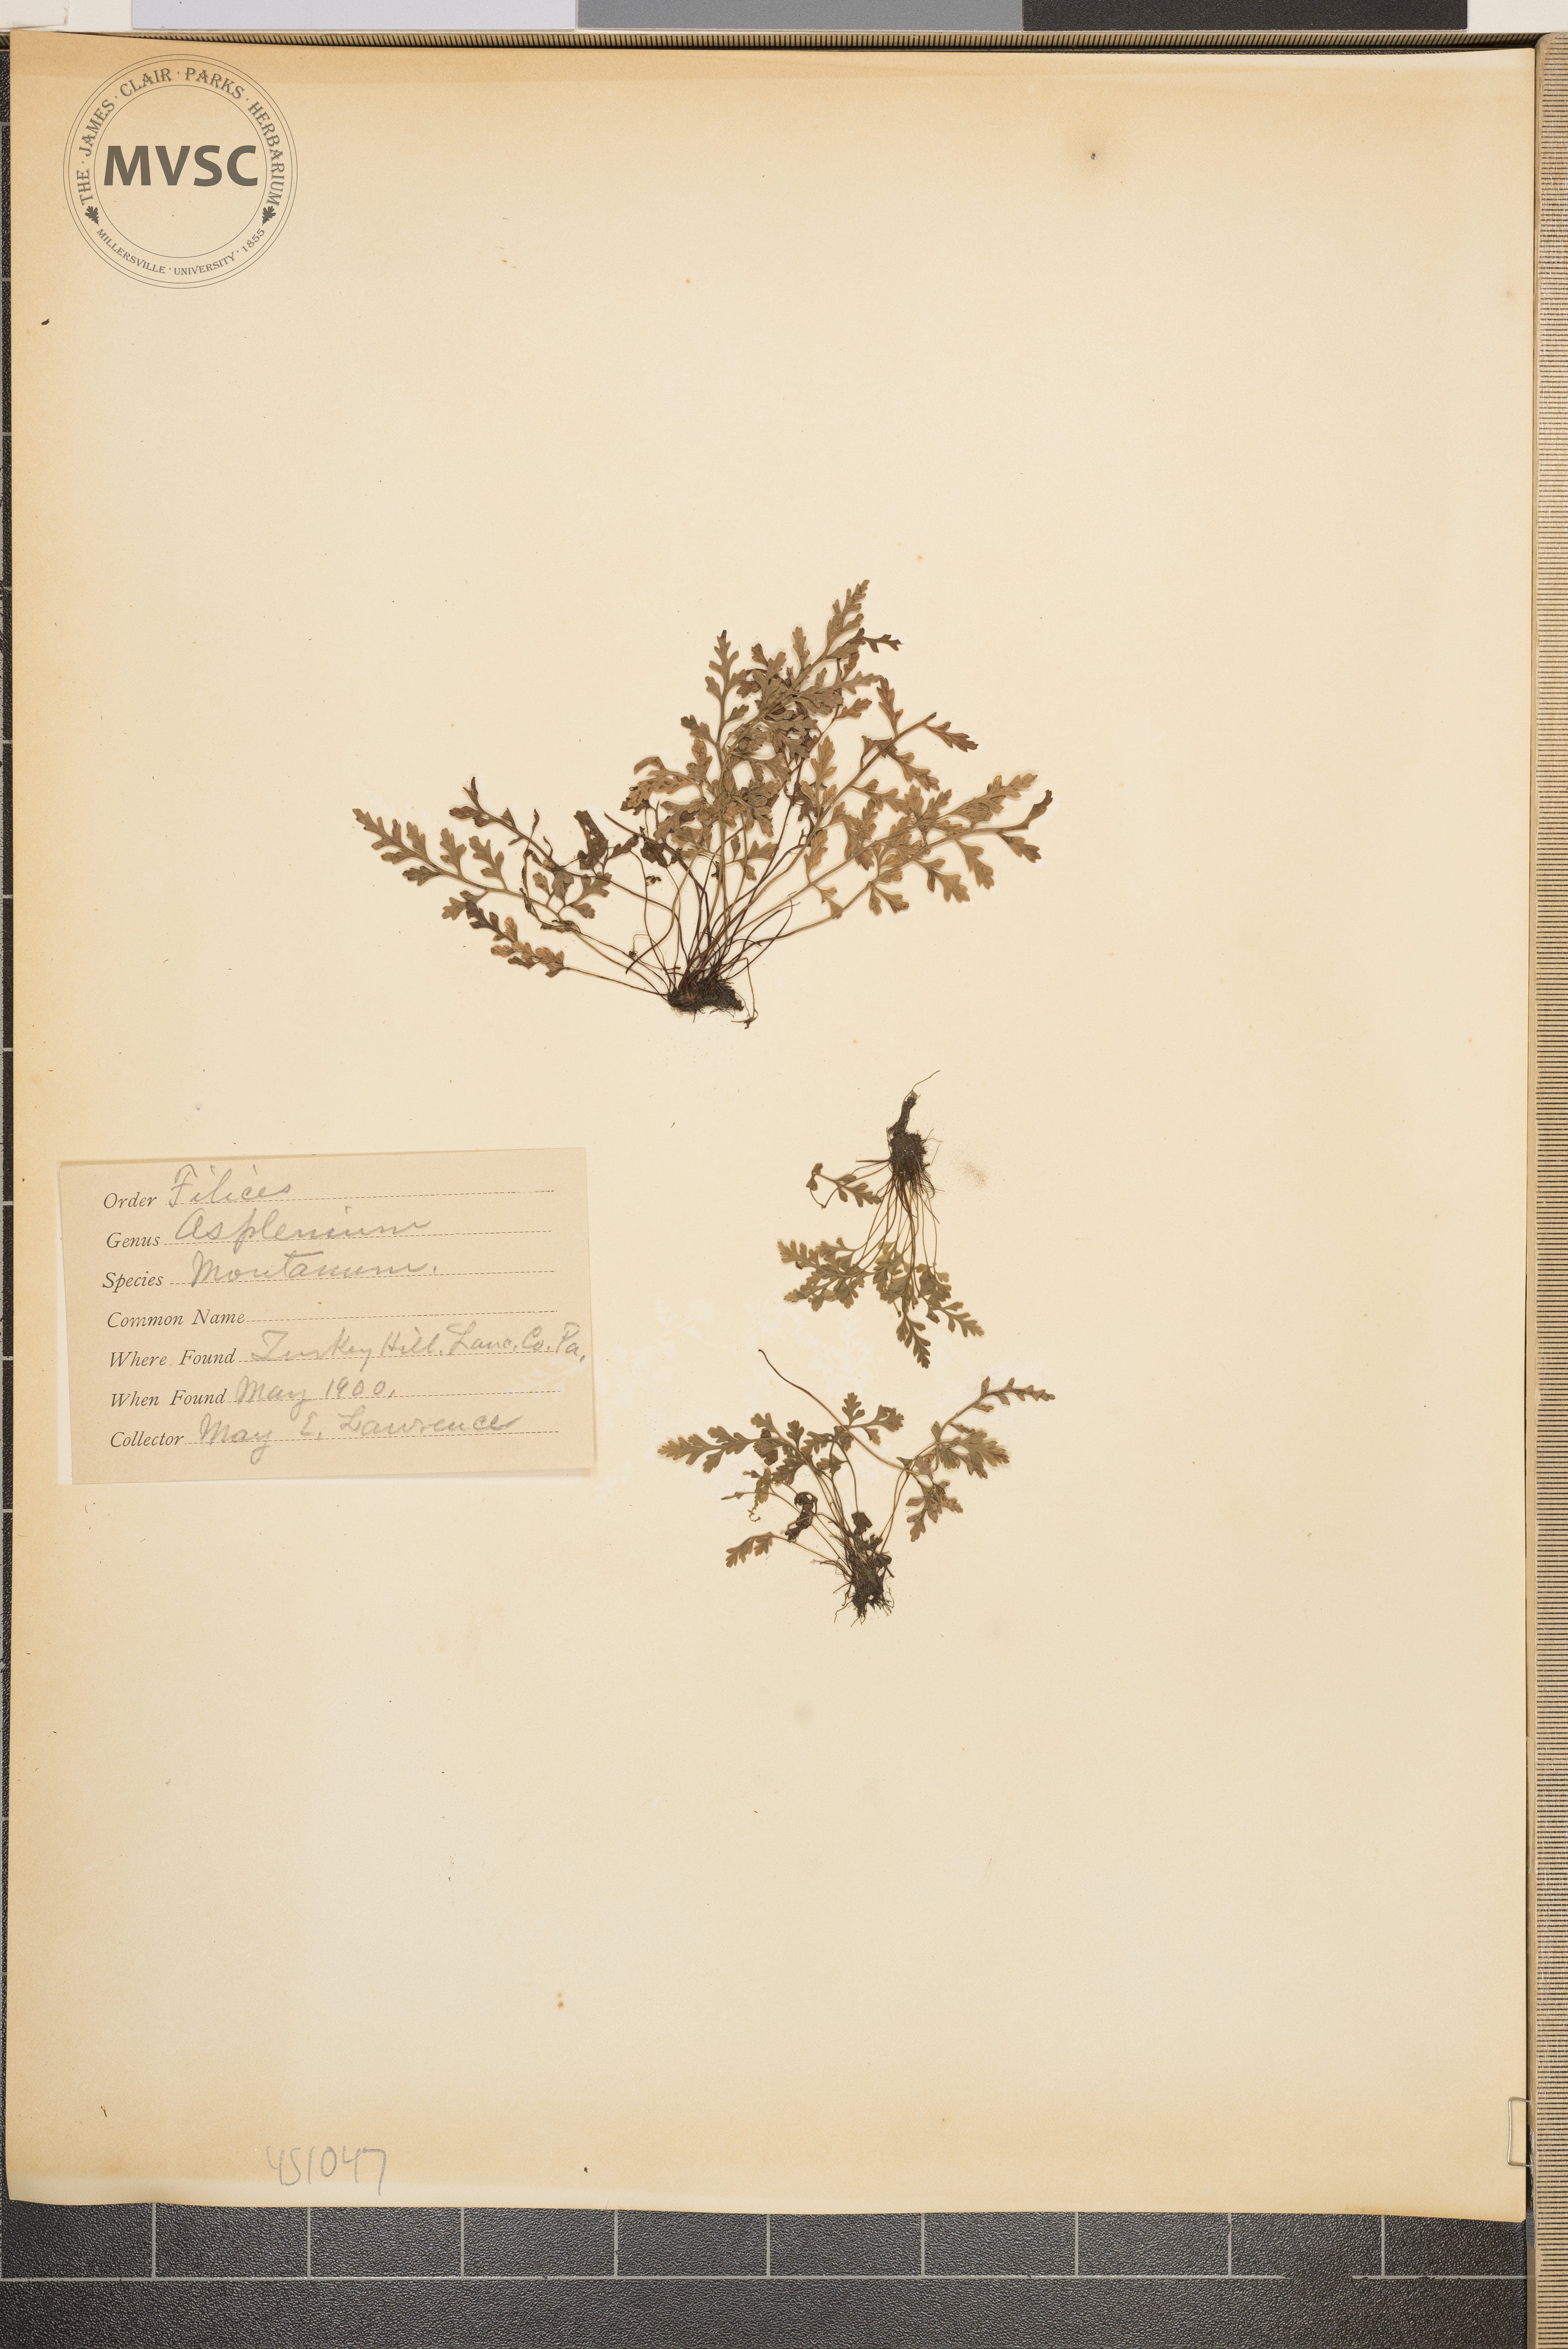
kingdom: Plantae
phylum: Tracheophyta
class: Polypodiopsida
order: Polypodiales
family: Aspleniaceae
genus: Asplenium
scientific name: Asplenium montanum
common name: Mountain spleenwort
